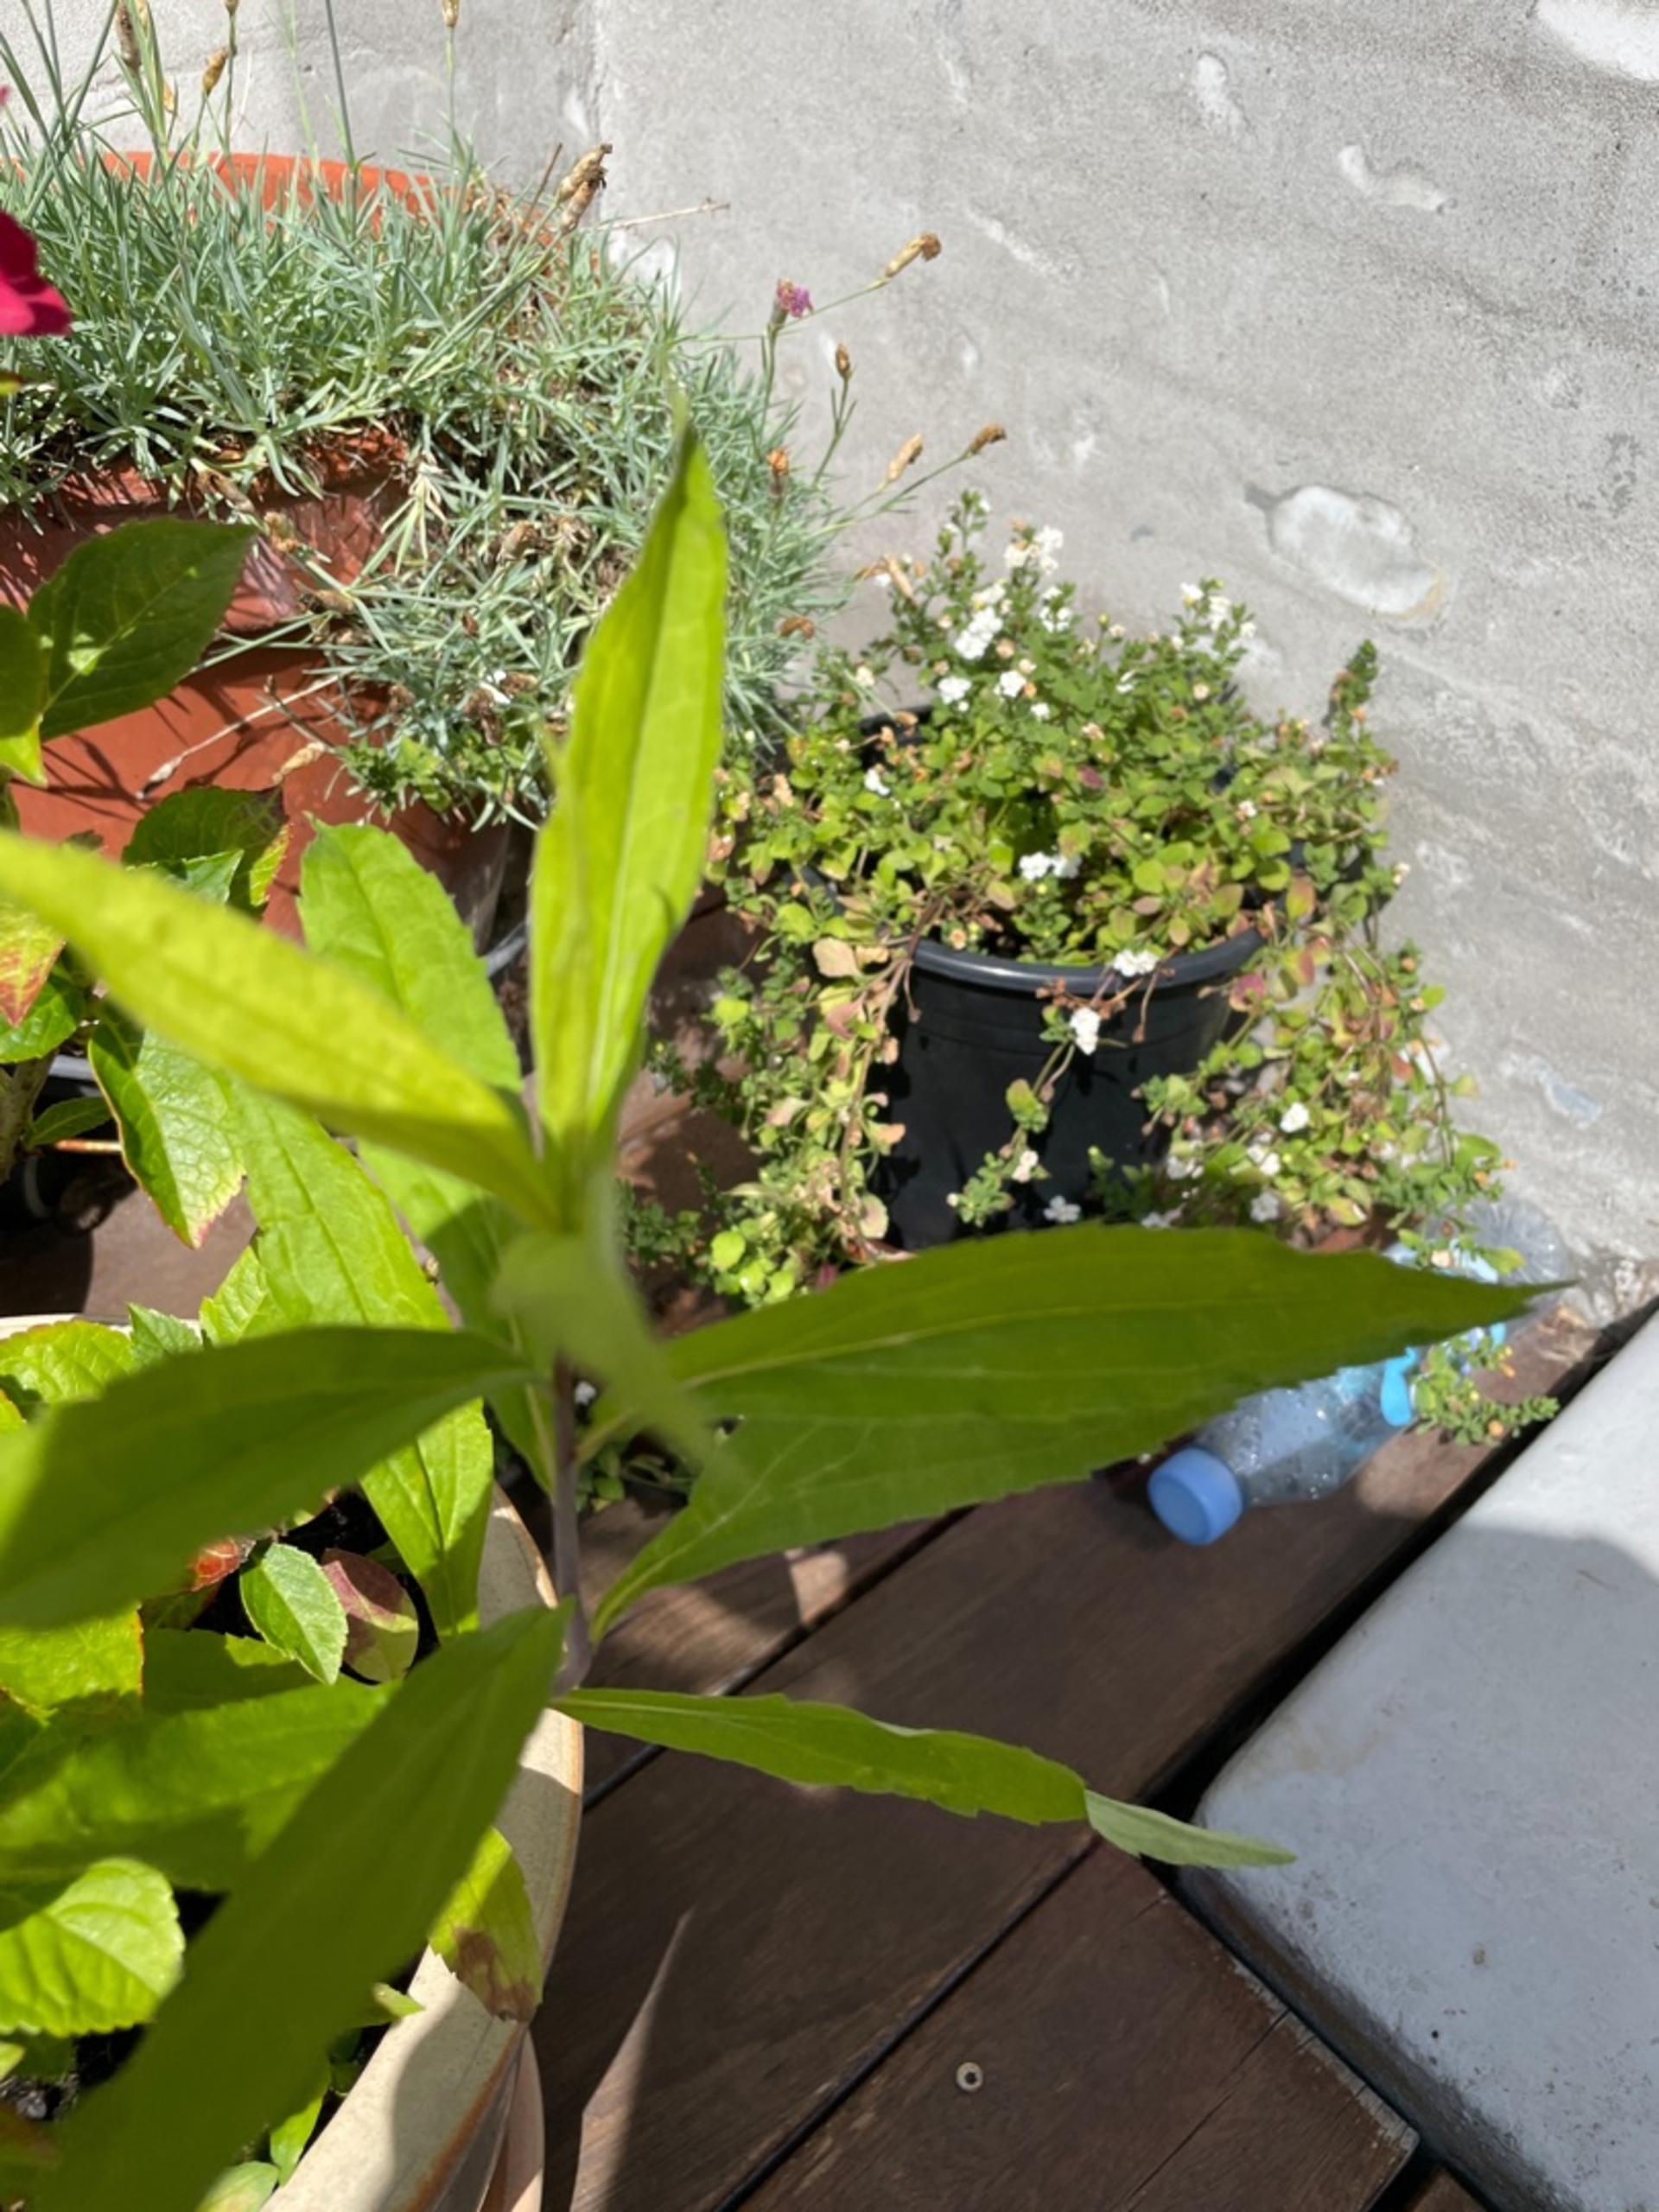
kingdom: Plantae
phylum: Tracheophyta
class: Magnoliopsida
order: Asterales
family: Asteraceae
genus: Solidago
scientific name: Solidago gigantea
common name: Sildig gyldenris
